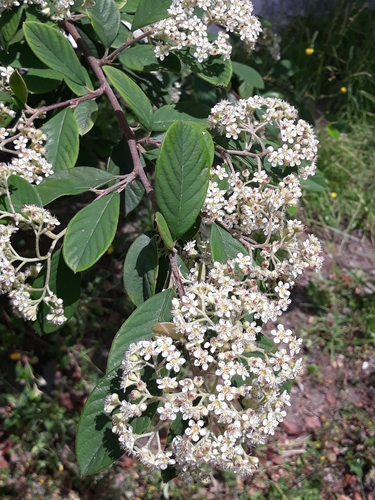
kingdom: Plantae
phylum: Tracheophyta
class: Magnoliopsida
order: Rosales
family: Rosaceae
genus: Cotoneaster
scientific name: Cotoneaster pannosus
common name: Silverleaf cotoneaster
